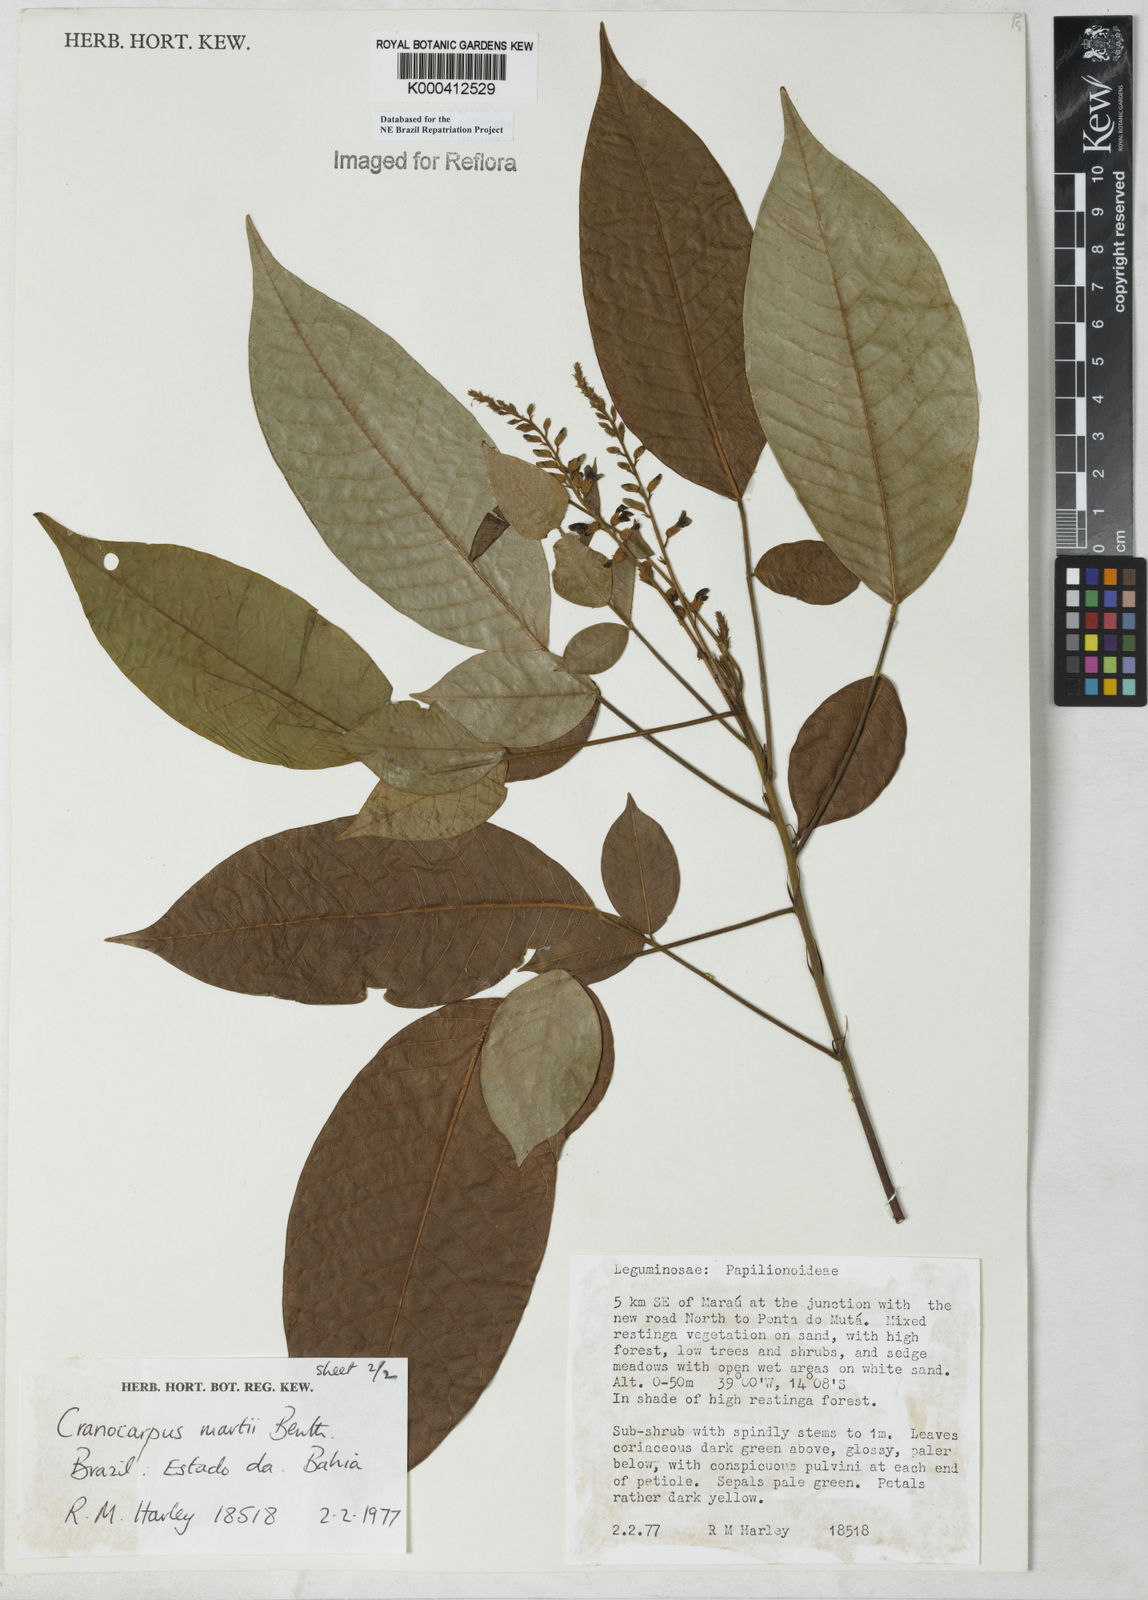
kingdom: Plantae
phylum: Tracheophyta
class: Magnoliopsida
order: Fabales
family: Fabaceae
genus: Cranocarpus
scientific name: Cranocarpus martii
